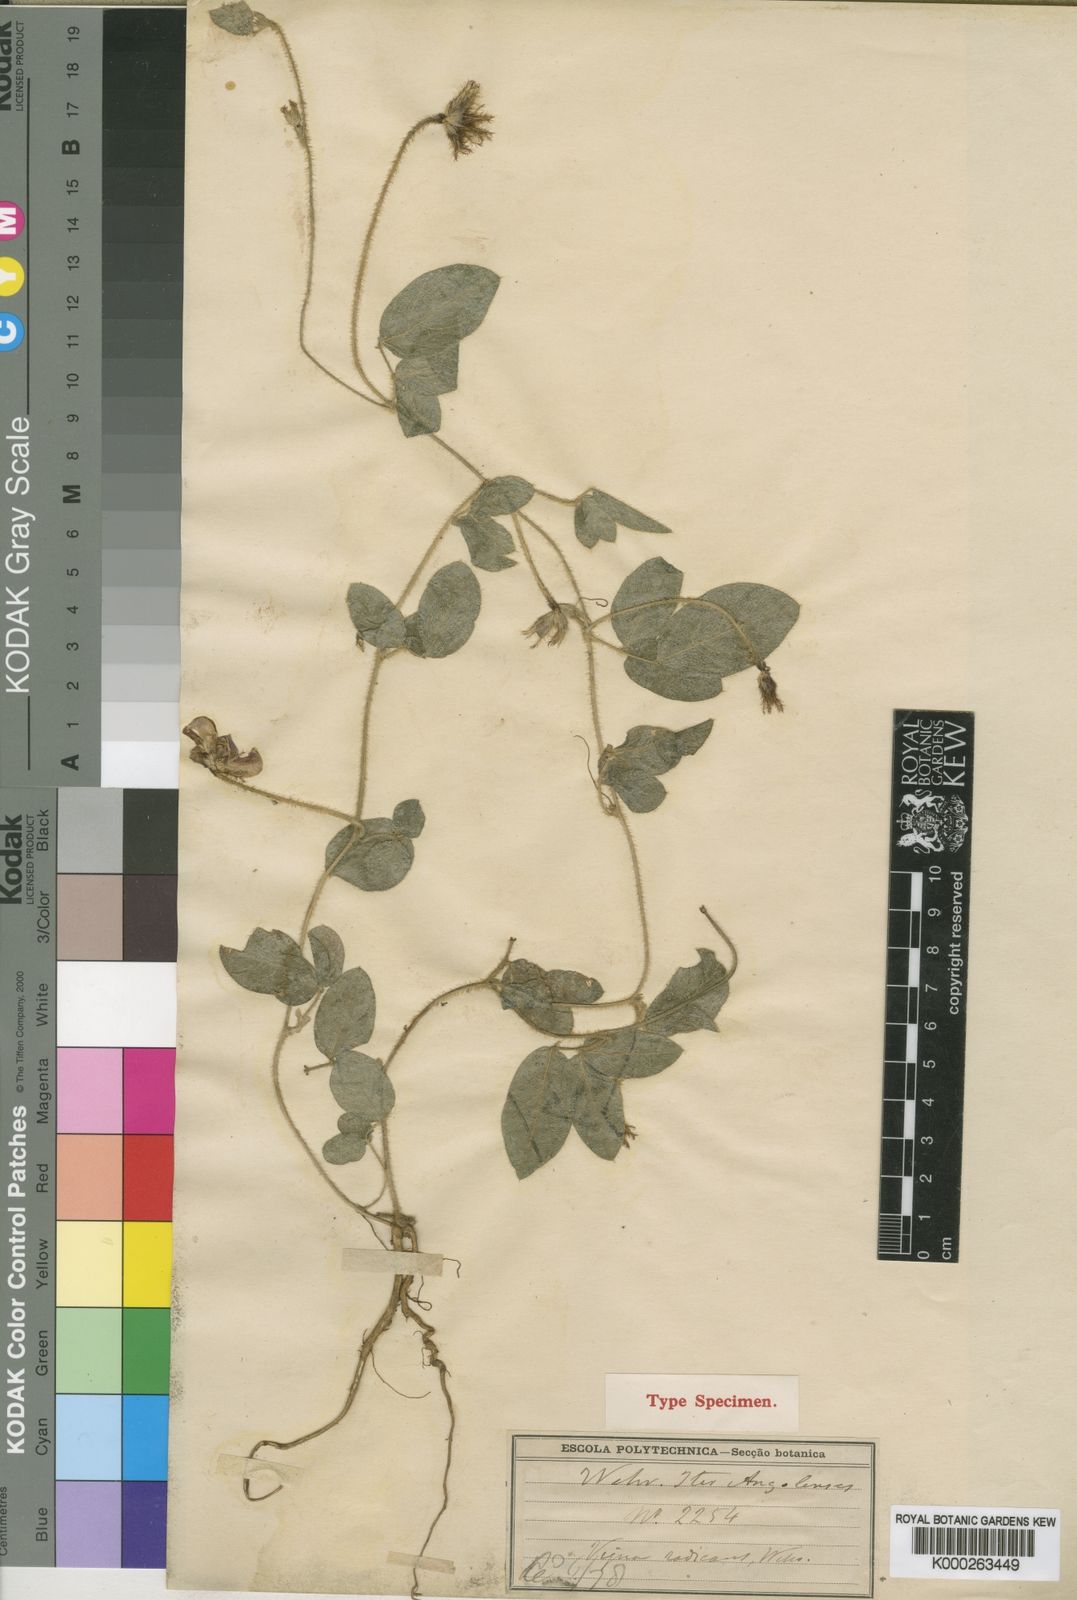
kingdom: Plantae
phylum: Tracheophyta
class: Magnoliopsida
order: Fabales
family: Fabaceae
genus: Vigna
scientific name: Vigna radicans
